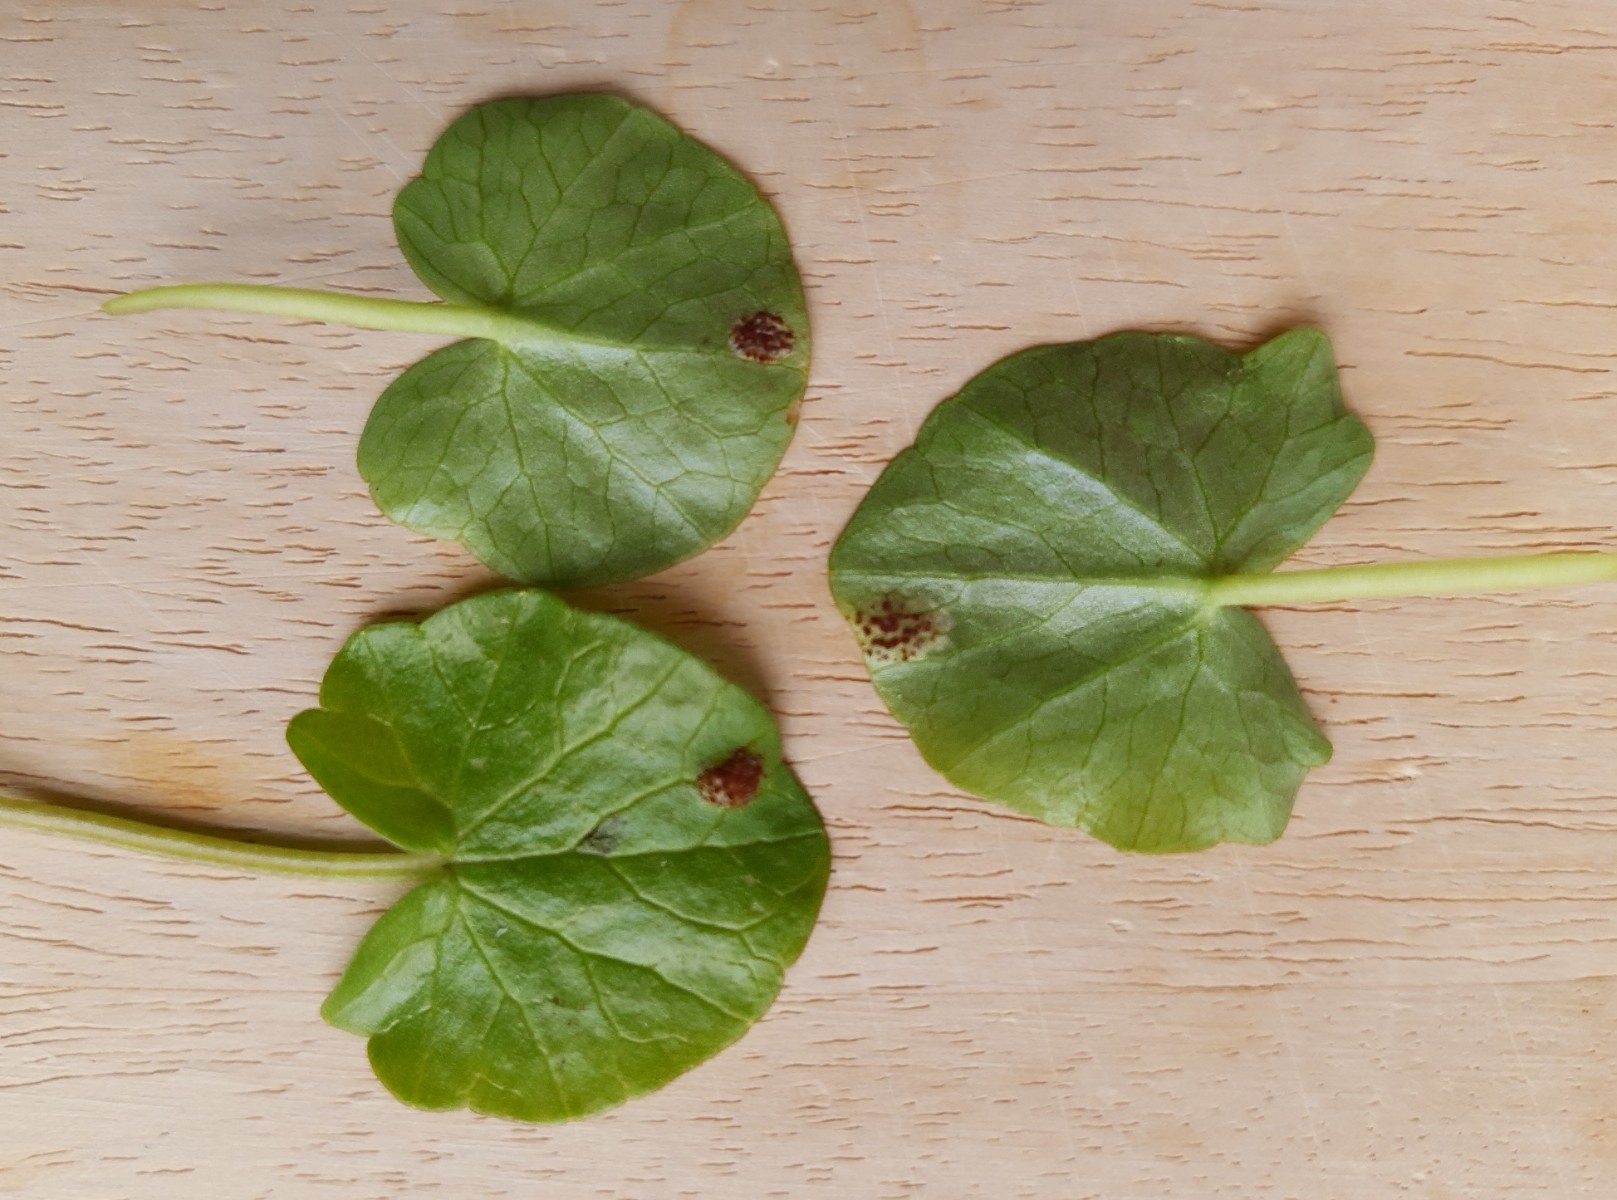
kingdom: Fungi
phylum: Basidiomycota
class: Pucciniomycetes
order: Pucciniales
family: Pucciniaceae
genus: Uromyces
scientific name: Uromyces ficariae
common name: vorterod-encellerust
